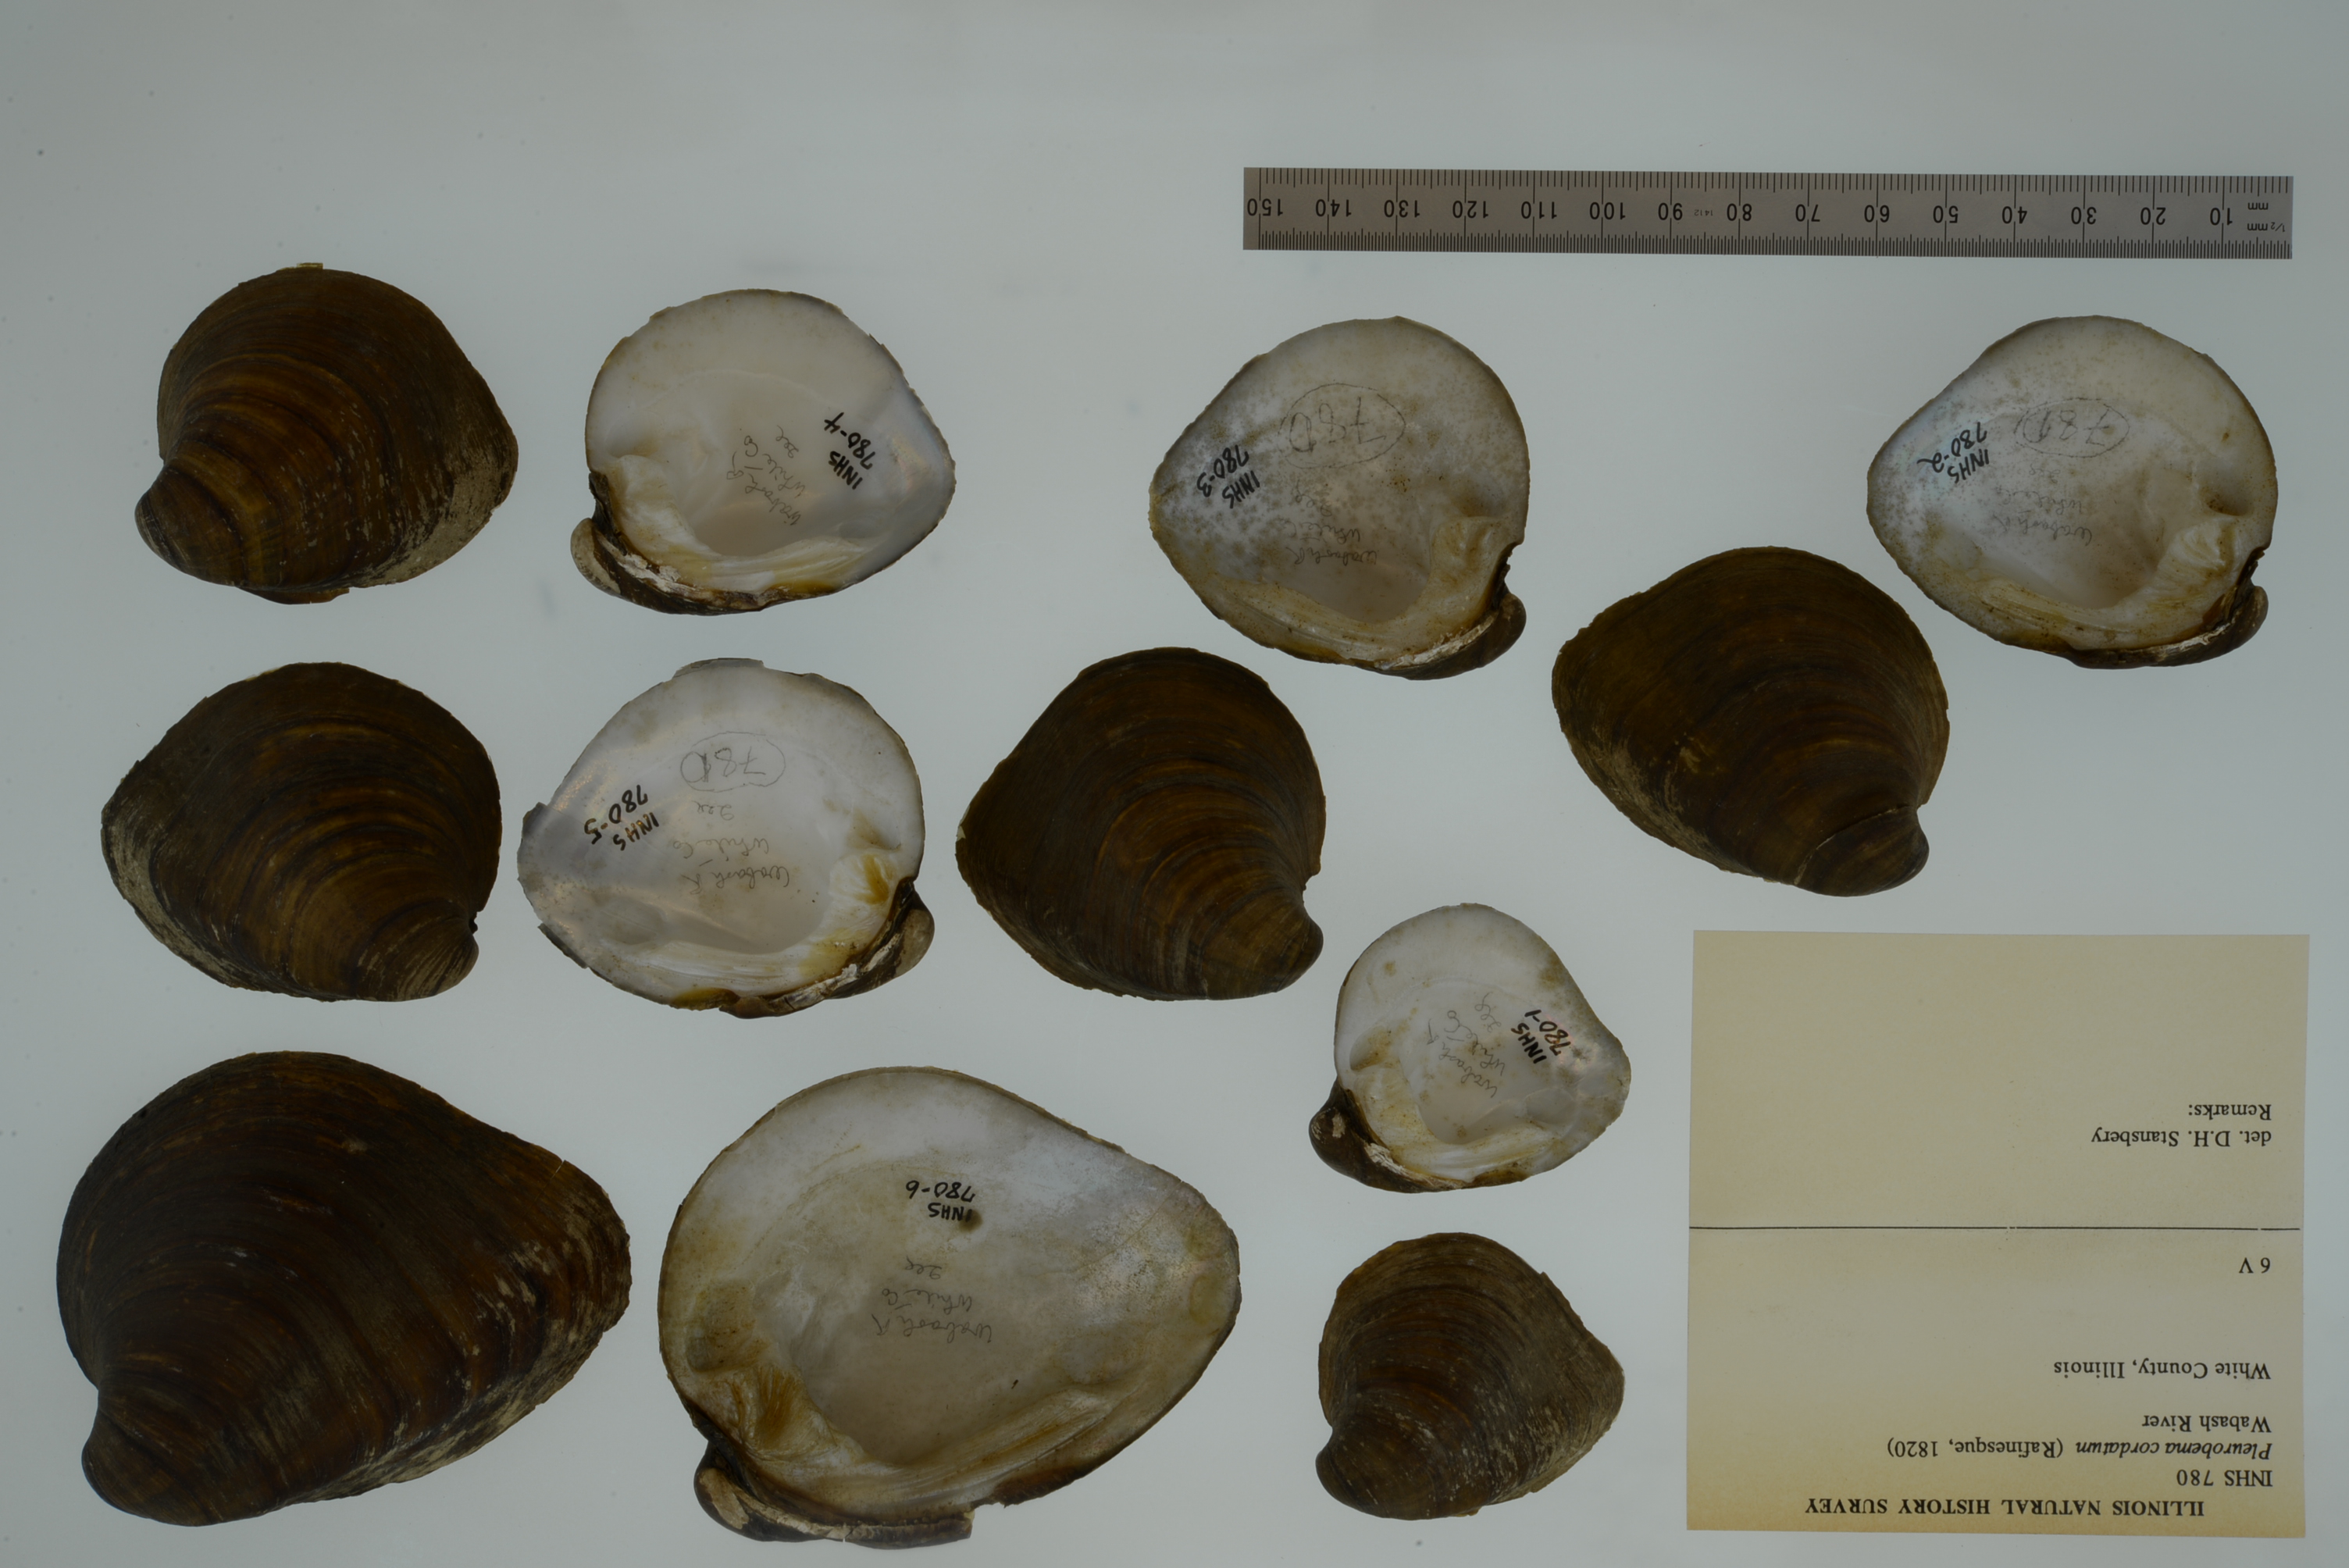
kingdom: Animalia
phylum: Mollusca
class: Bivalvia
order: Unionida
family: Unionidae
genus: Pleurobema
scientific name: Pleurobema cordatum
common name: Ohio pigtoe
